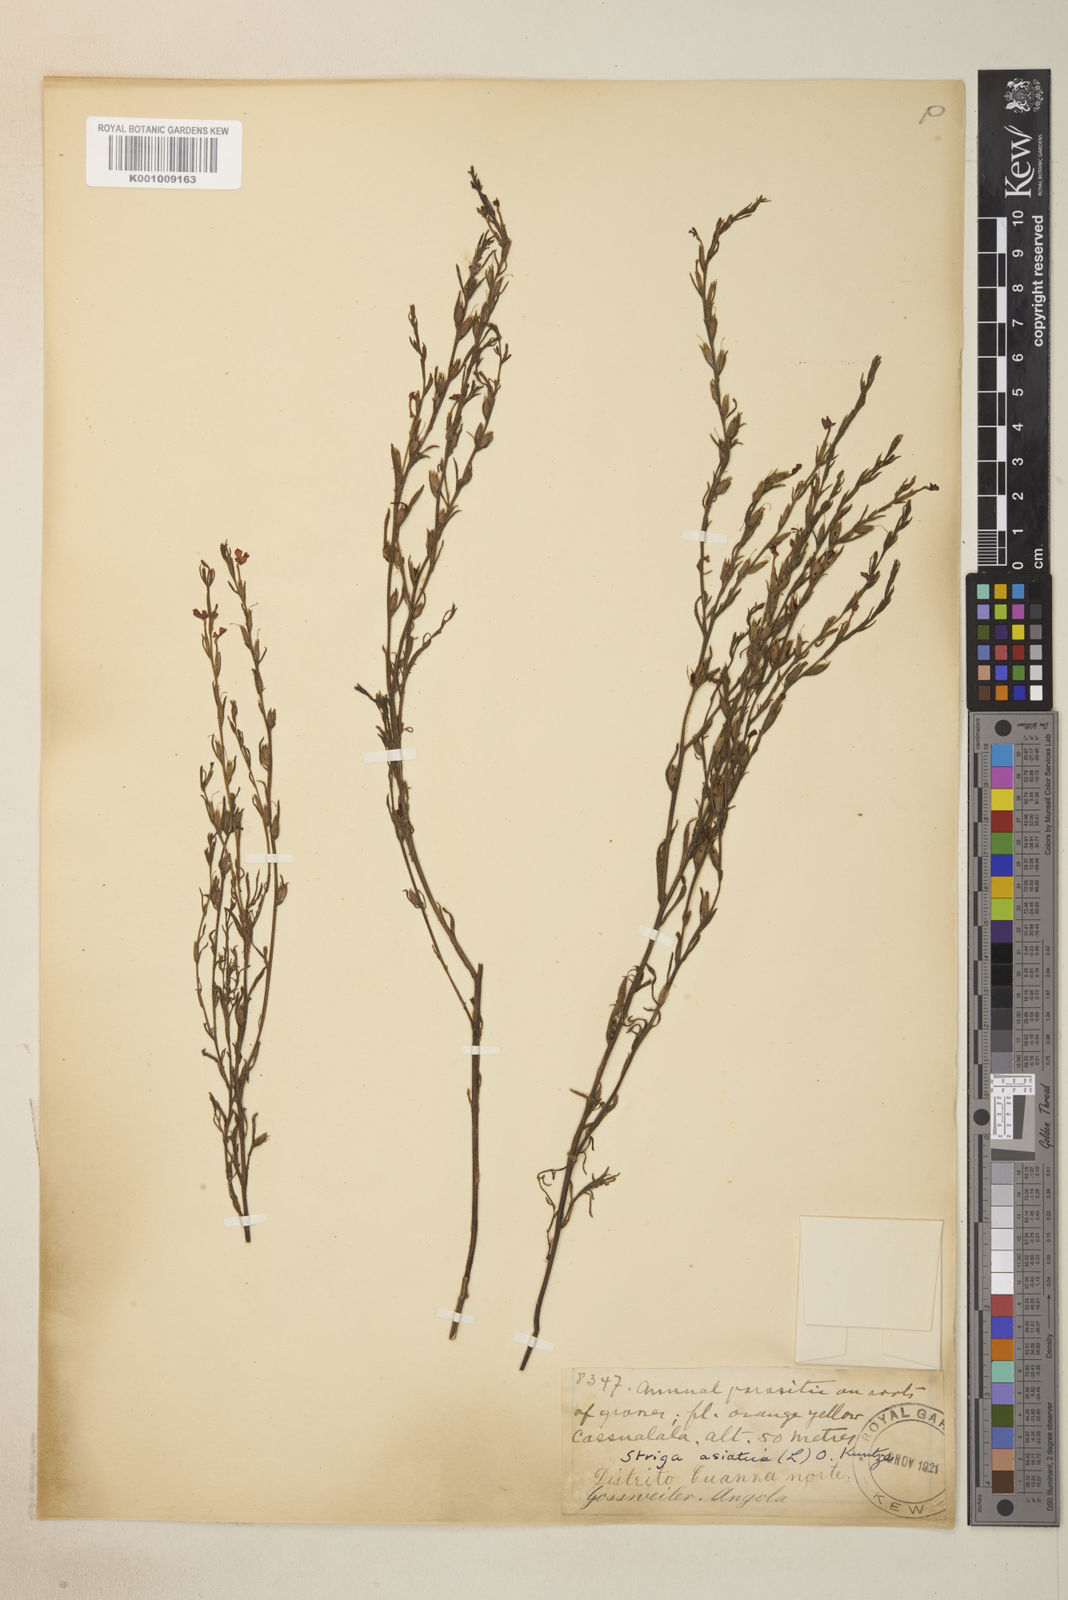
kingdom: Plantae
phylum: Tracheophyta
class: Magnoliopsida
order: Lamiales
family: Orobanchaceae
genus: Striga
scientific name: Striga asiatica
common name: Asiatic witchweed
